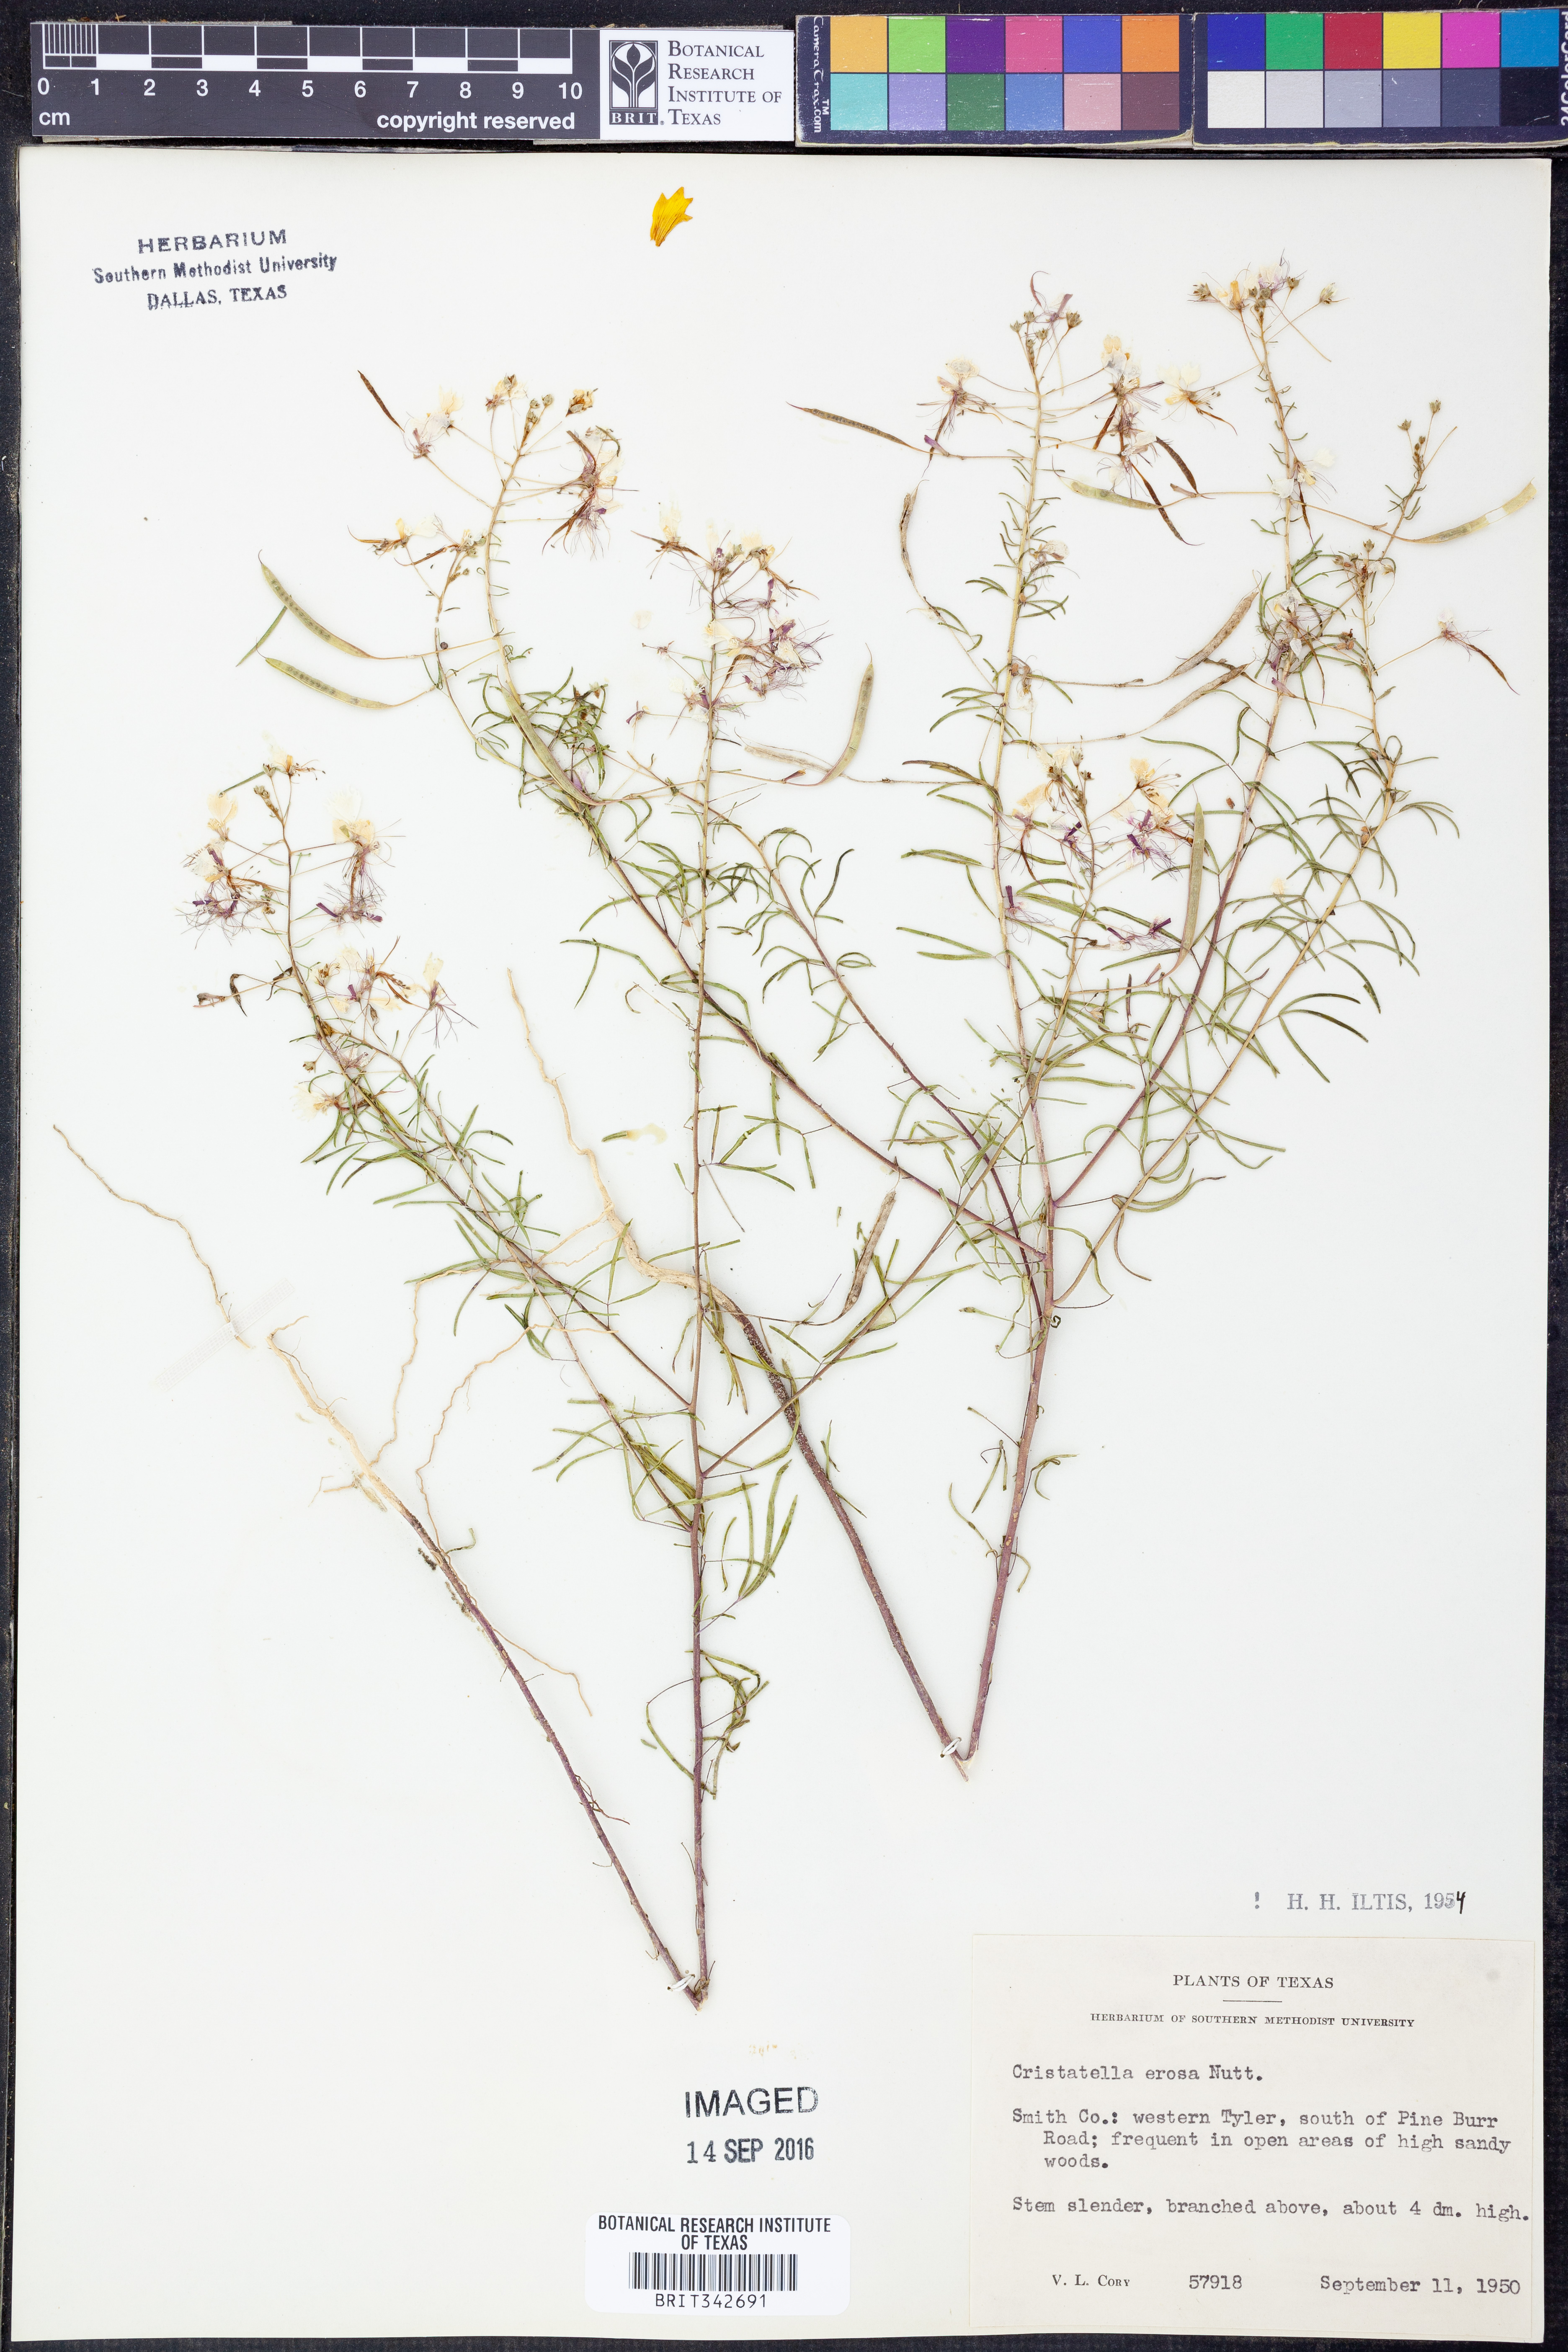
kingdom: Plantae
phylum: Tracheophyta
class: Magnoliopsida
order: Brassicales
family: Cleomaceae
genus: Polanisia
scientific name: Polanisia erosa
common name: Large clammyweed
